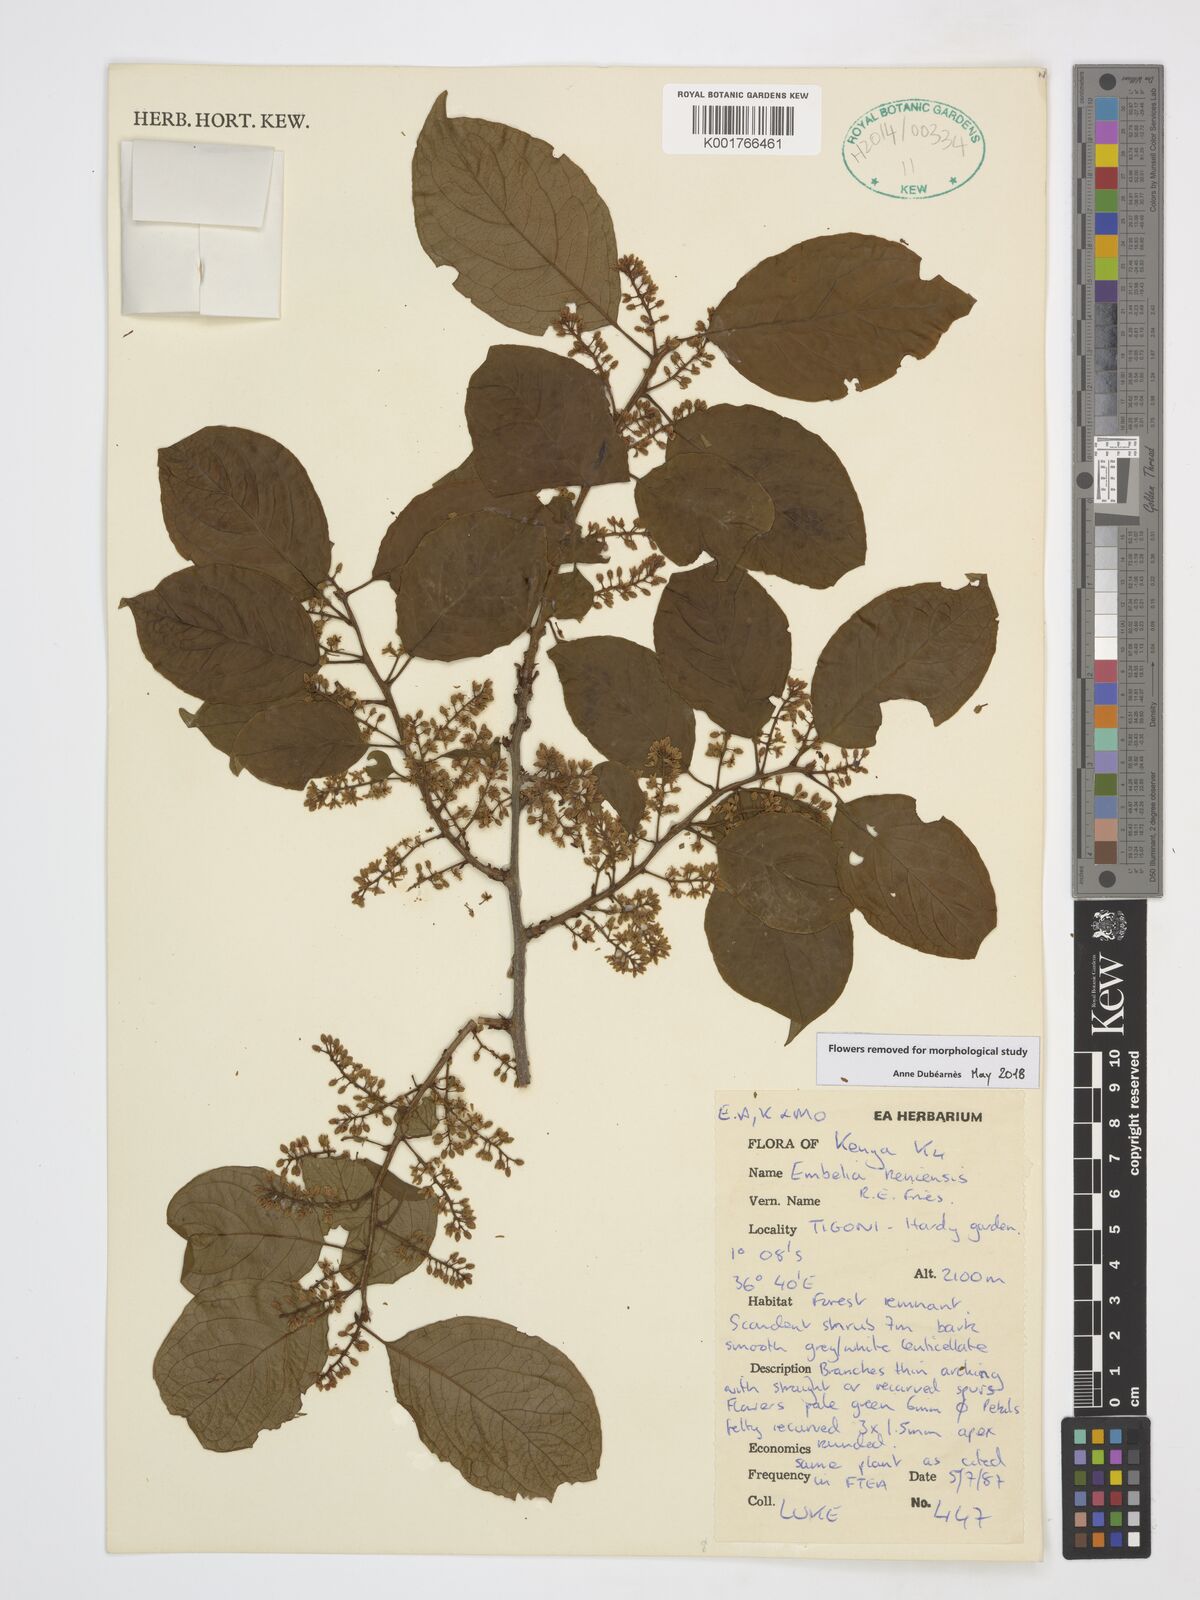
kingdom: Plantae
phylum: Tracheophyta
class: Magnoliopsida
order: Ericales
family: Primulaceae
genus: Embelia
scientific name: Embelia keniensis
